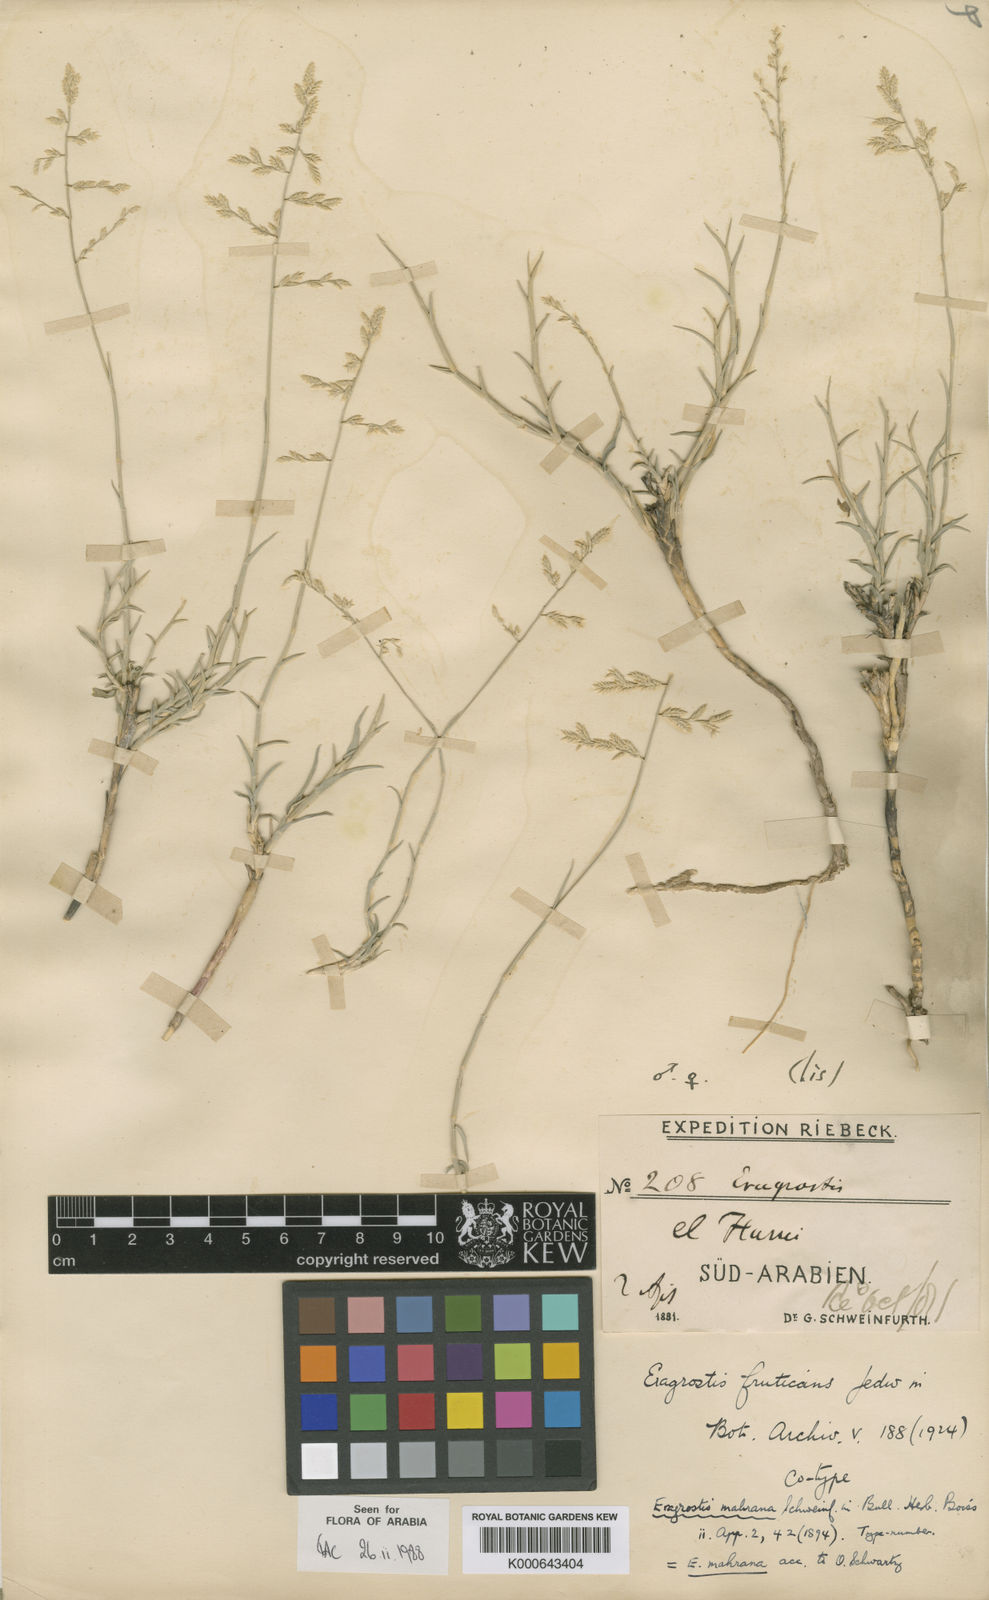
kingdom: Plantae
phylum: Tracheophyta
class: Liliopsida
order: Poales
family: Poaceae
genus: Eragrostis
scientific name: Eragrostis
